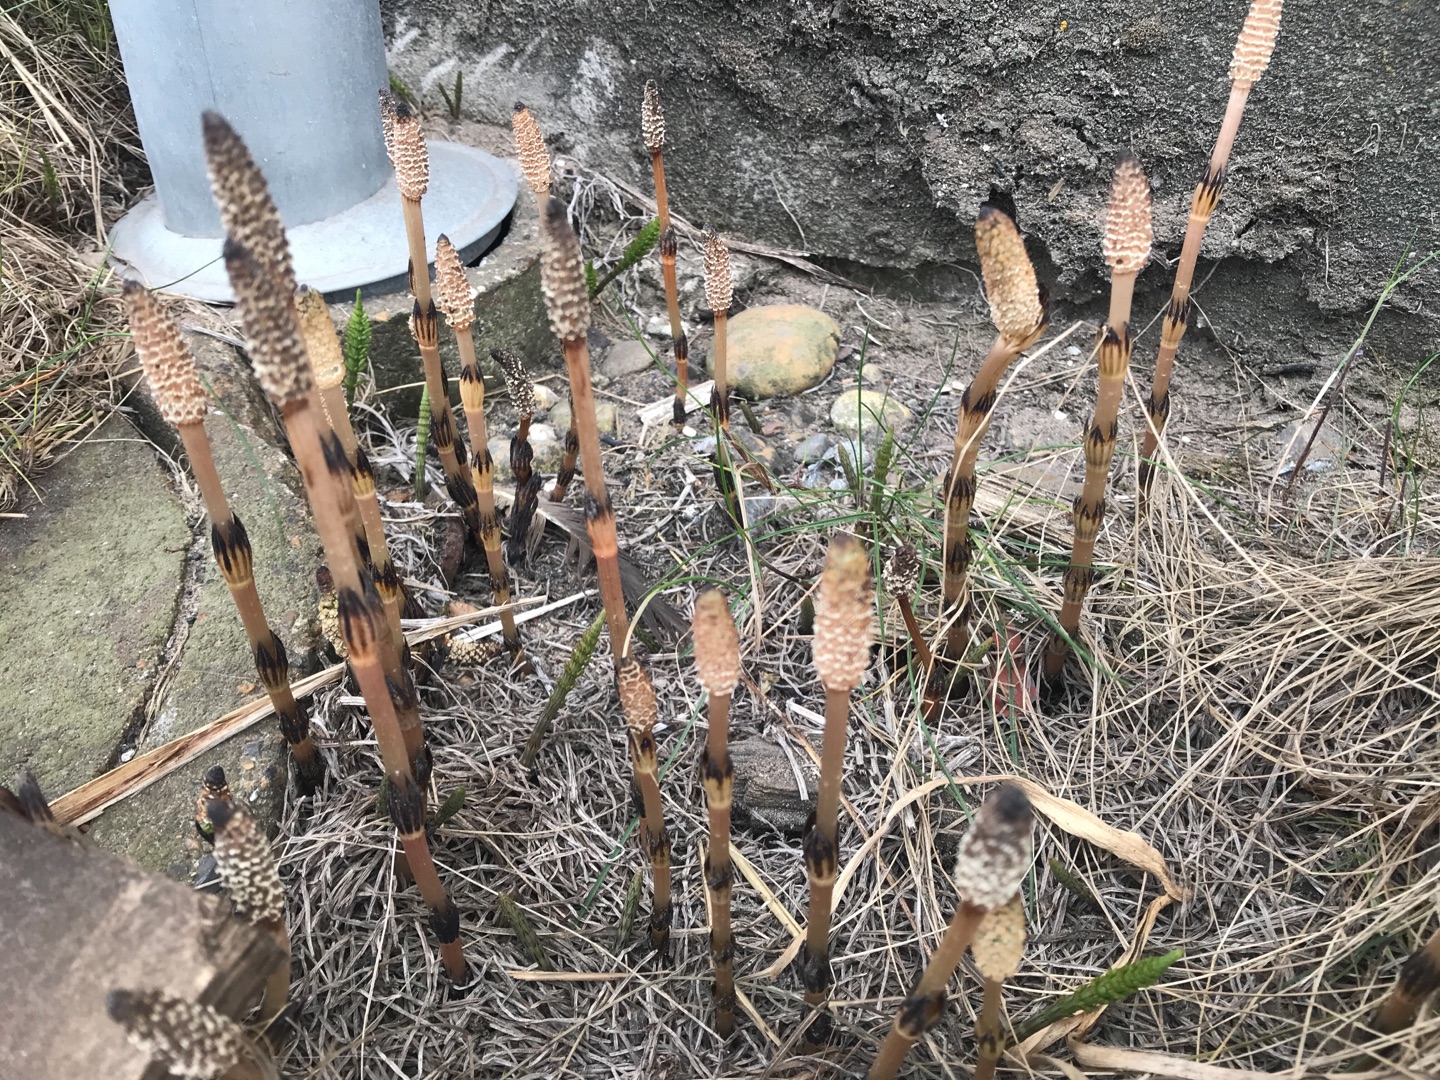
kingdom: Plantae
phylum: Tracheophyta
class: Polypodiopsida
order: Equisetales
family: Equisetaceae
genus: Equisetum
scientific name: Equisetum arvense
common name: Ager-padderok
